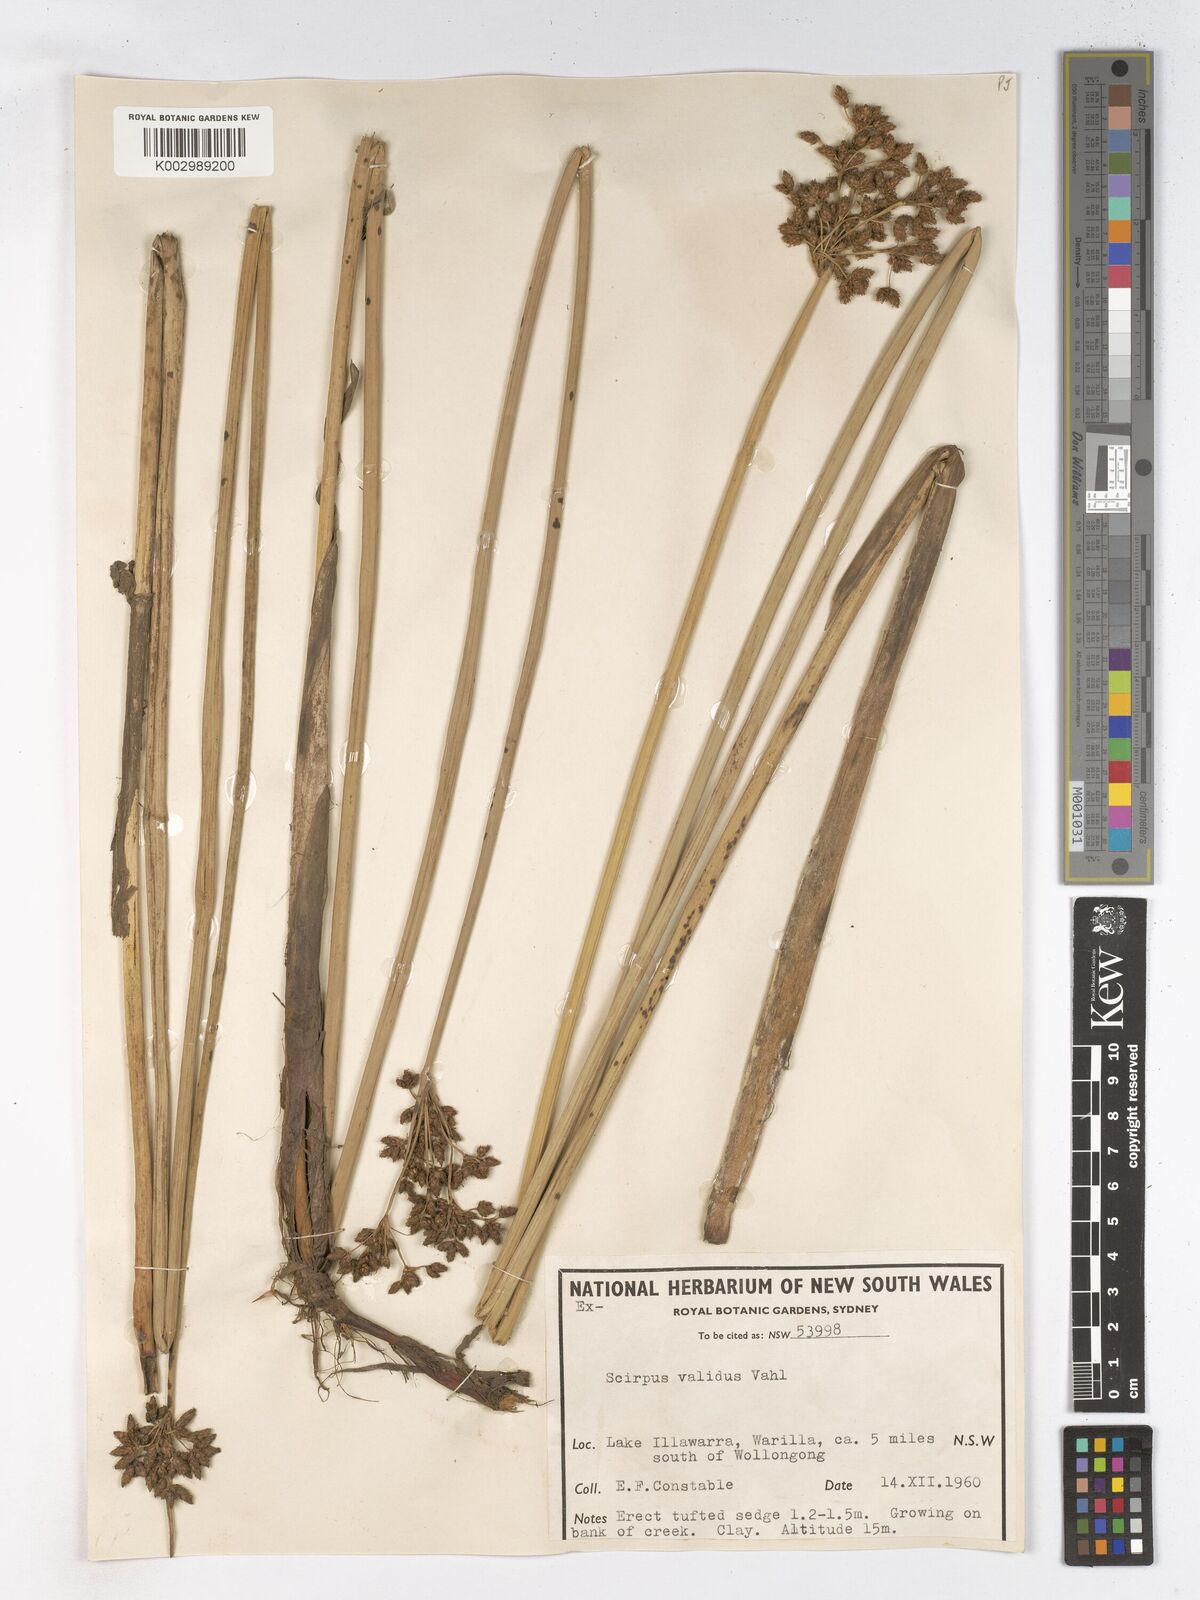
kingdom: Plantae
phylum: Tracheophyta
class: Liliopsida
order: Poales
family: Cyperaceae
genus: Schoenoplectus
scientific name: Schoenoplectus lacustris
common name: Common club-rush
